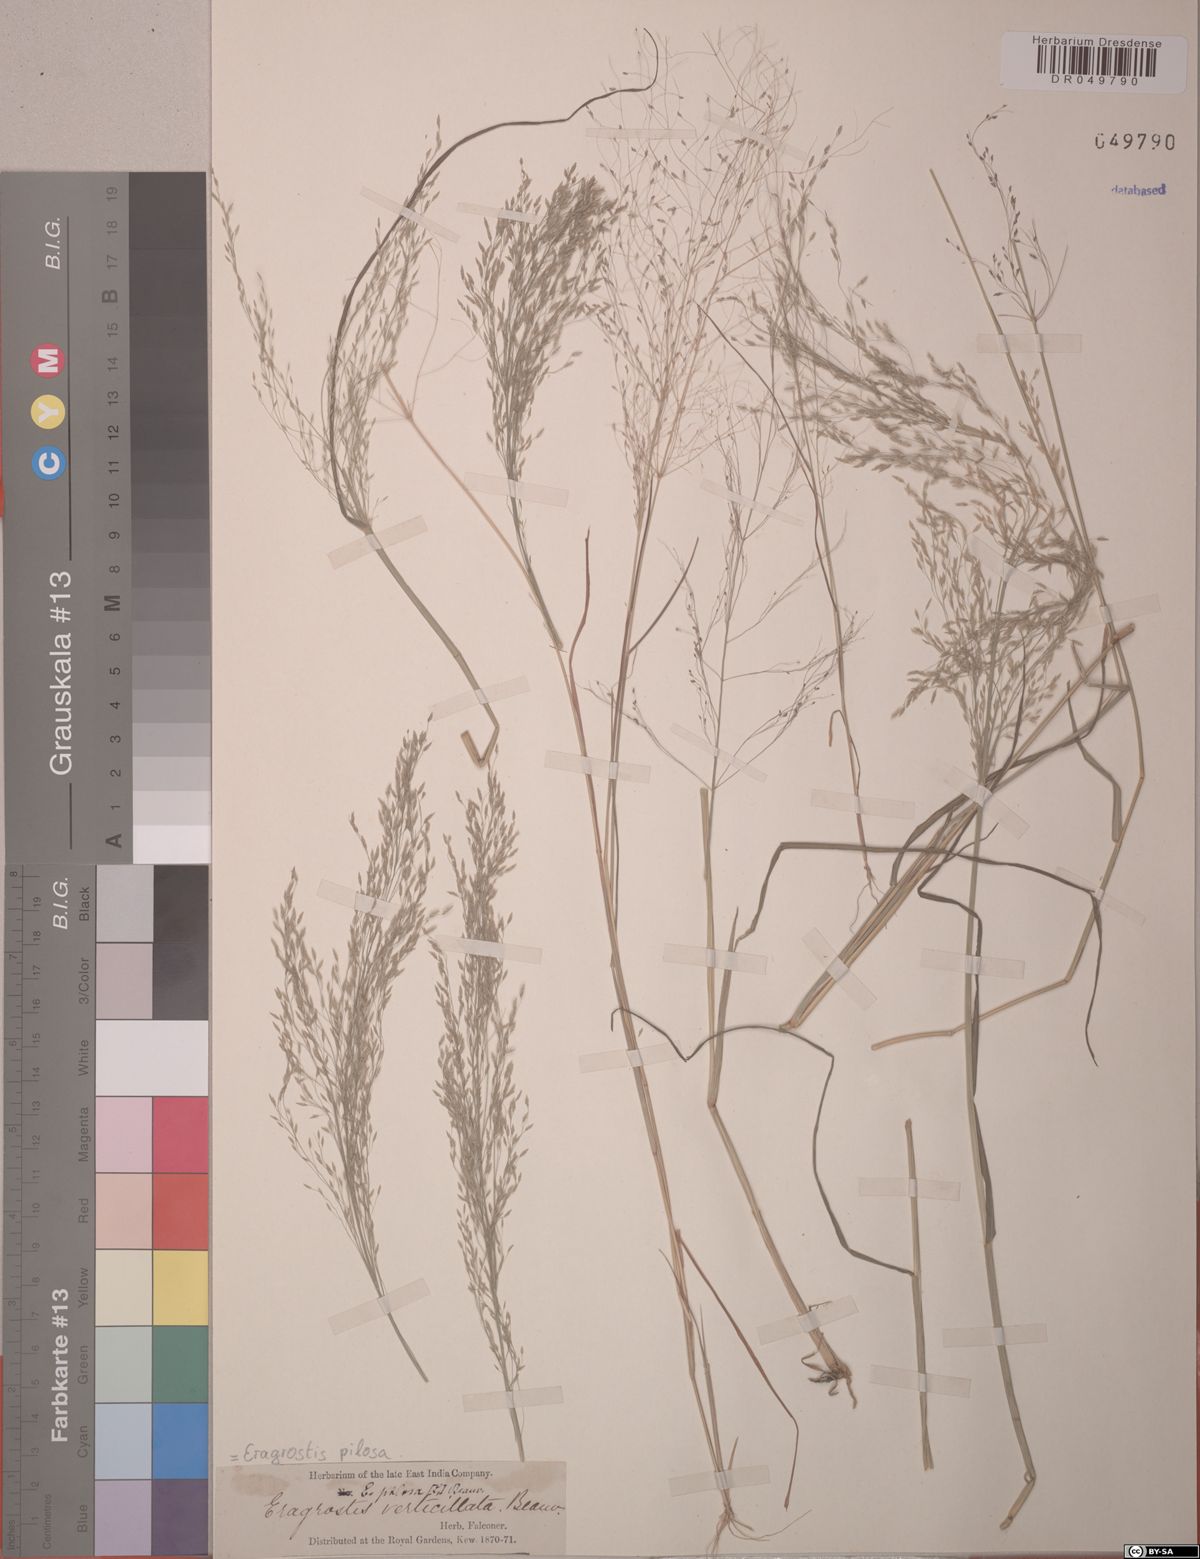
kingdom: Plantae
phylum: Tracheophyta
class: Liliopsida
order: Poales
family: Poaceae
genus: Eragrostis
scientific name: Eragrostis pilosa
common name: Indian lovegrass
